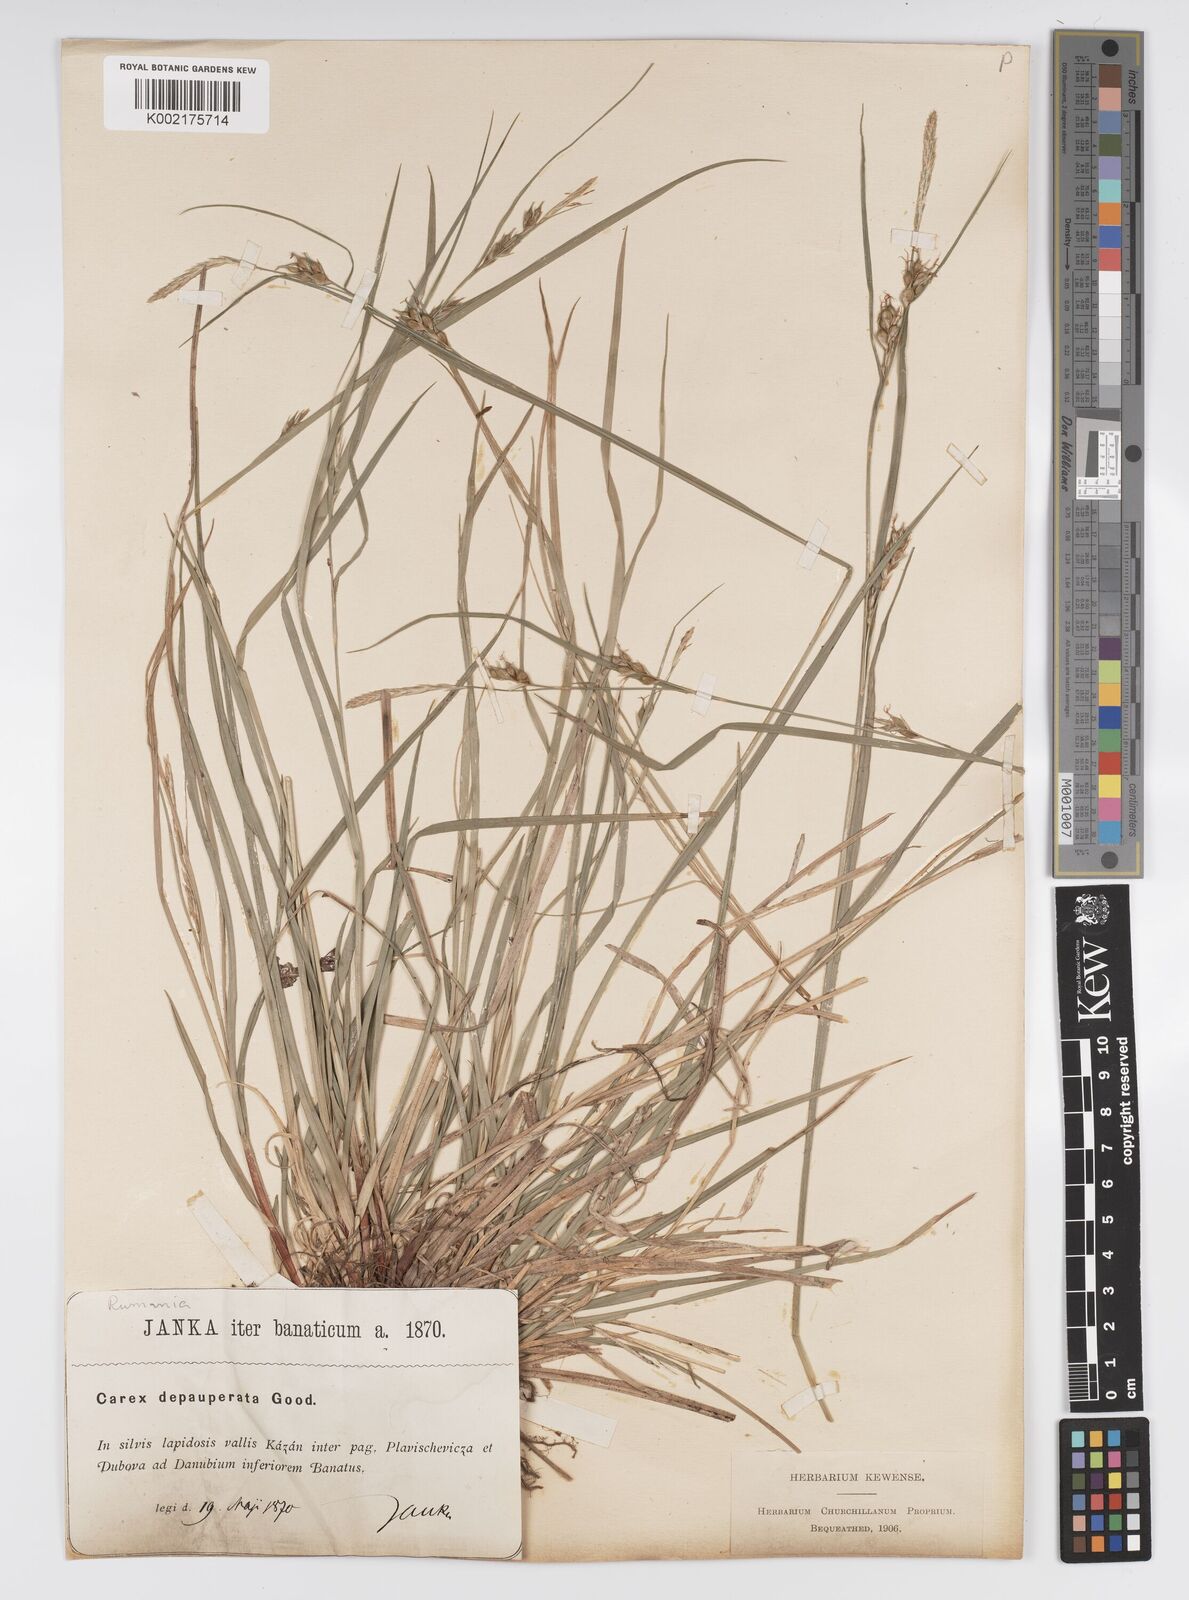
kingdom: Plantae
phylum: Tracheophyta
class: Liliopsida
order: Poales
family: Cyperaceae
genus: Carex
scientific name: Carex
